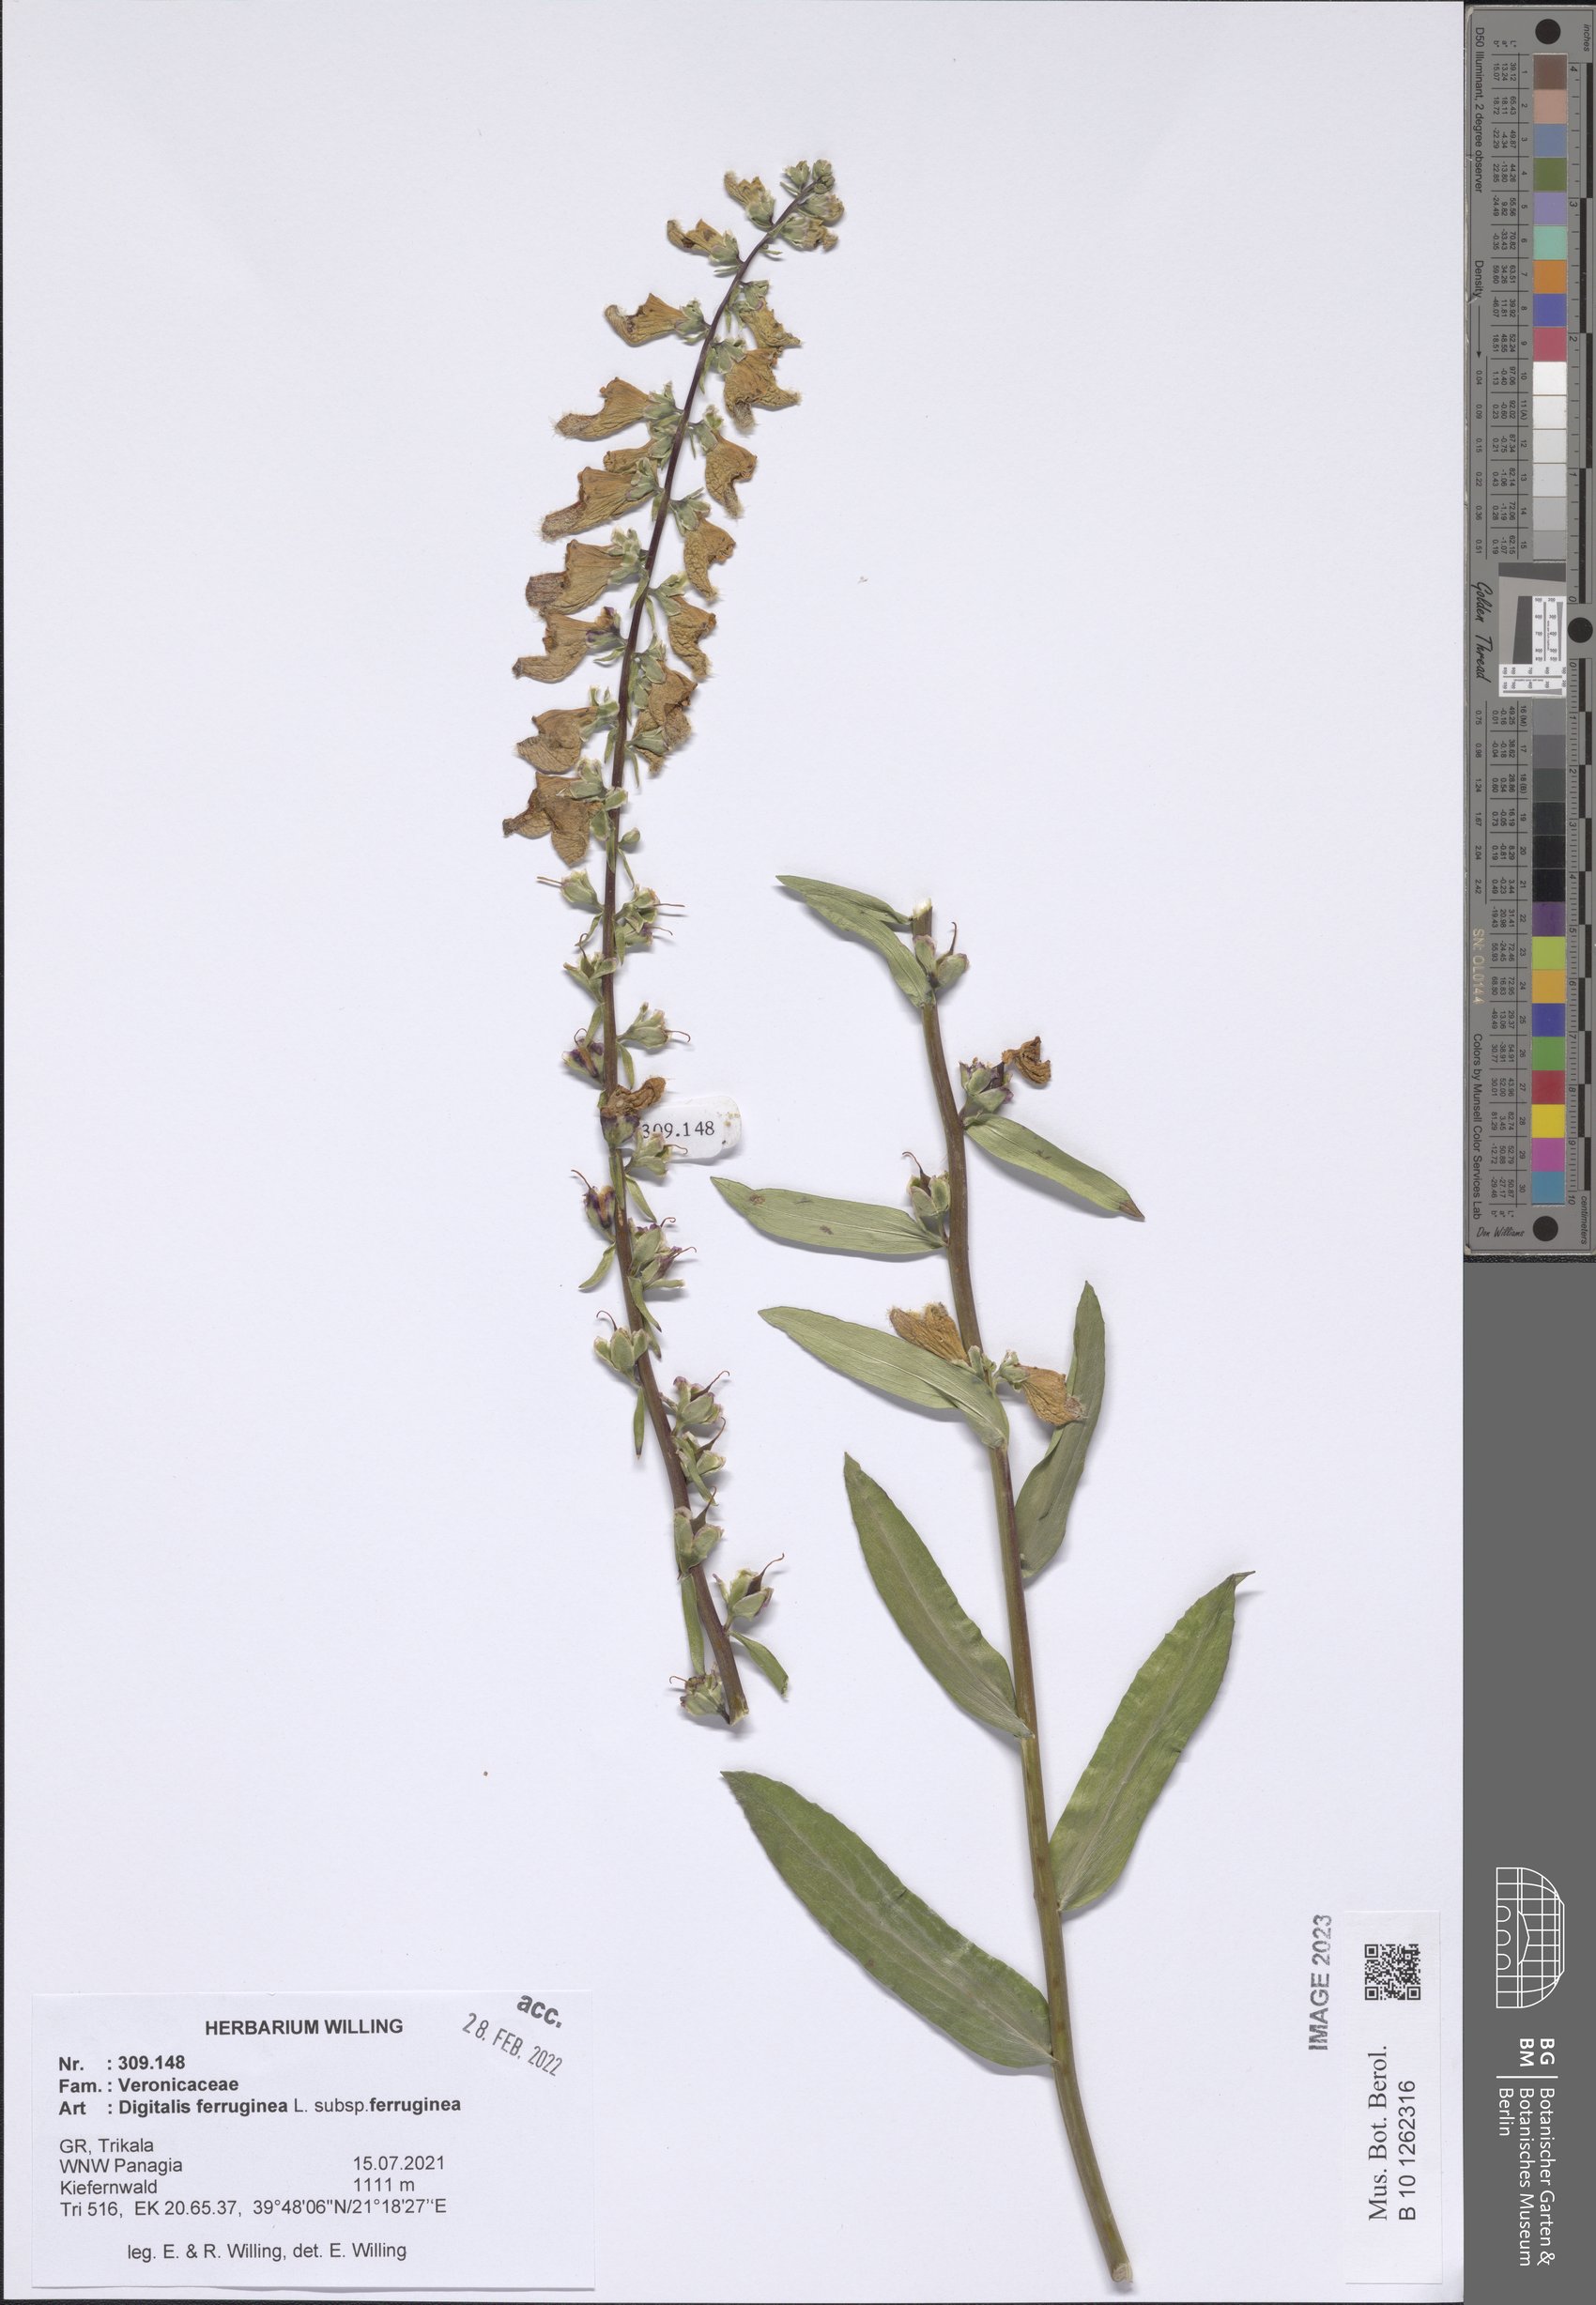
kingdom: Plantae
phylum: Tracheophyta
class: Magnoliopsida
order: Lamiales
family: Plantaginaceae
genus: Digitalis
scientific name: Digitalis ferruginea
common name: Rusty foxglove
